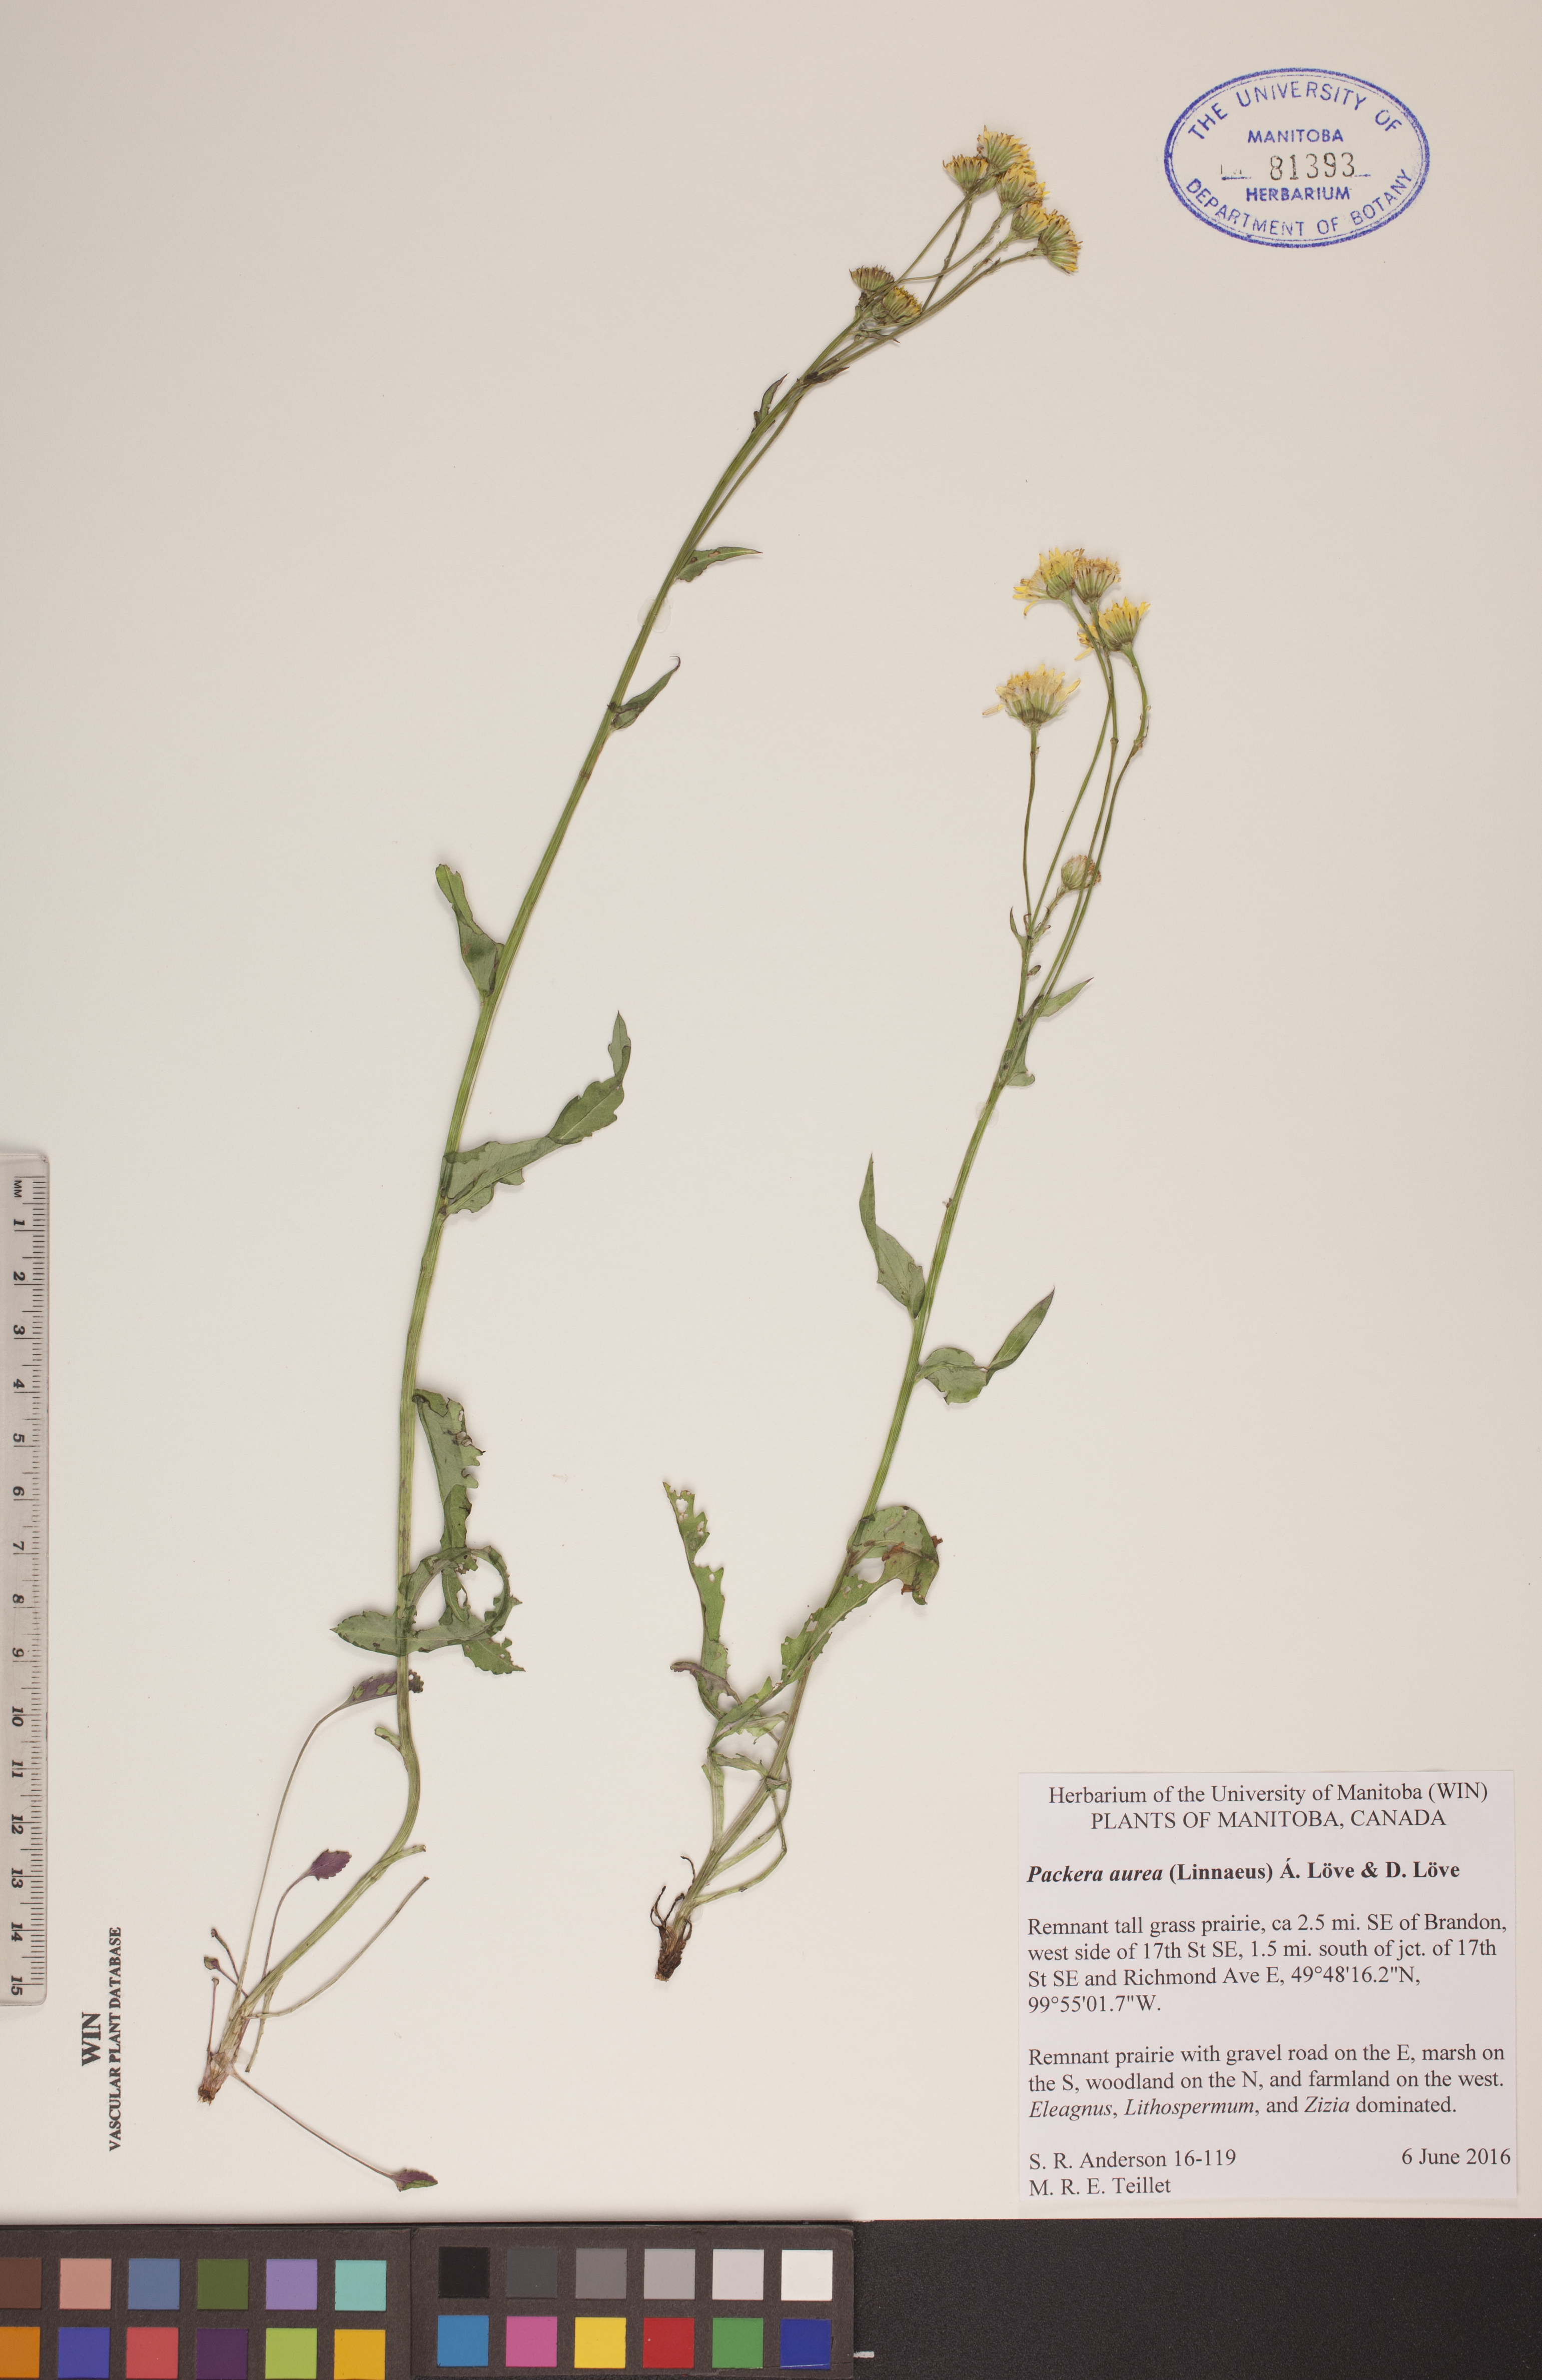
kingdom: Plantae
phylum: Tracheophyta
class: Magnoliopsida
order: Asterales
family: Asteraceae
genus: Packera
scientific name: Packera aurea
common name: Golden groundsel
